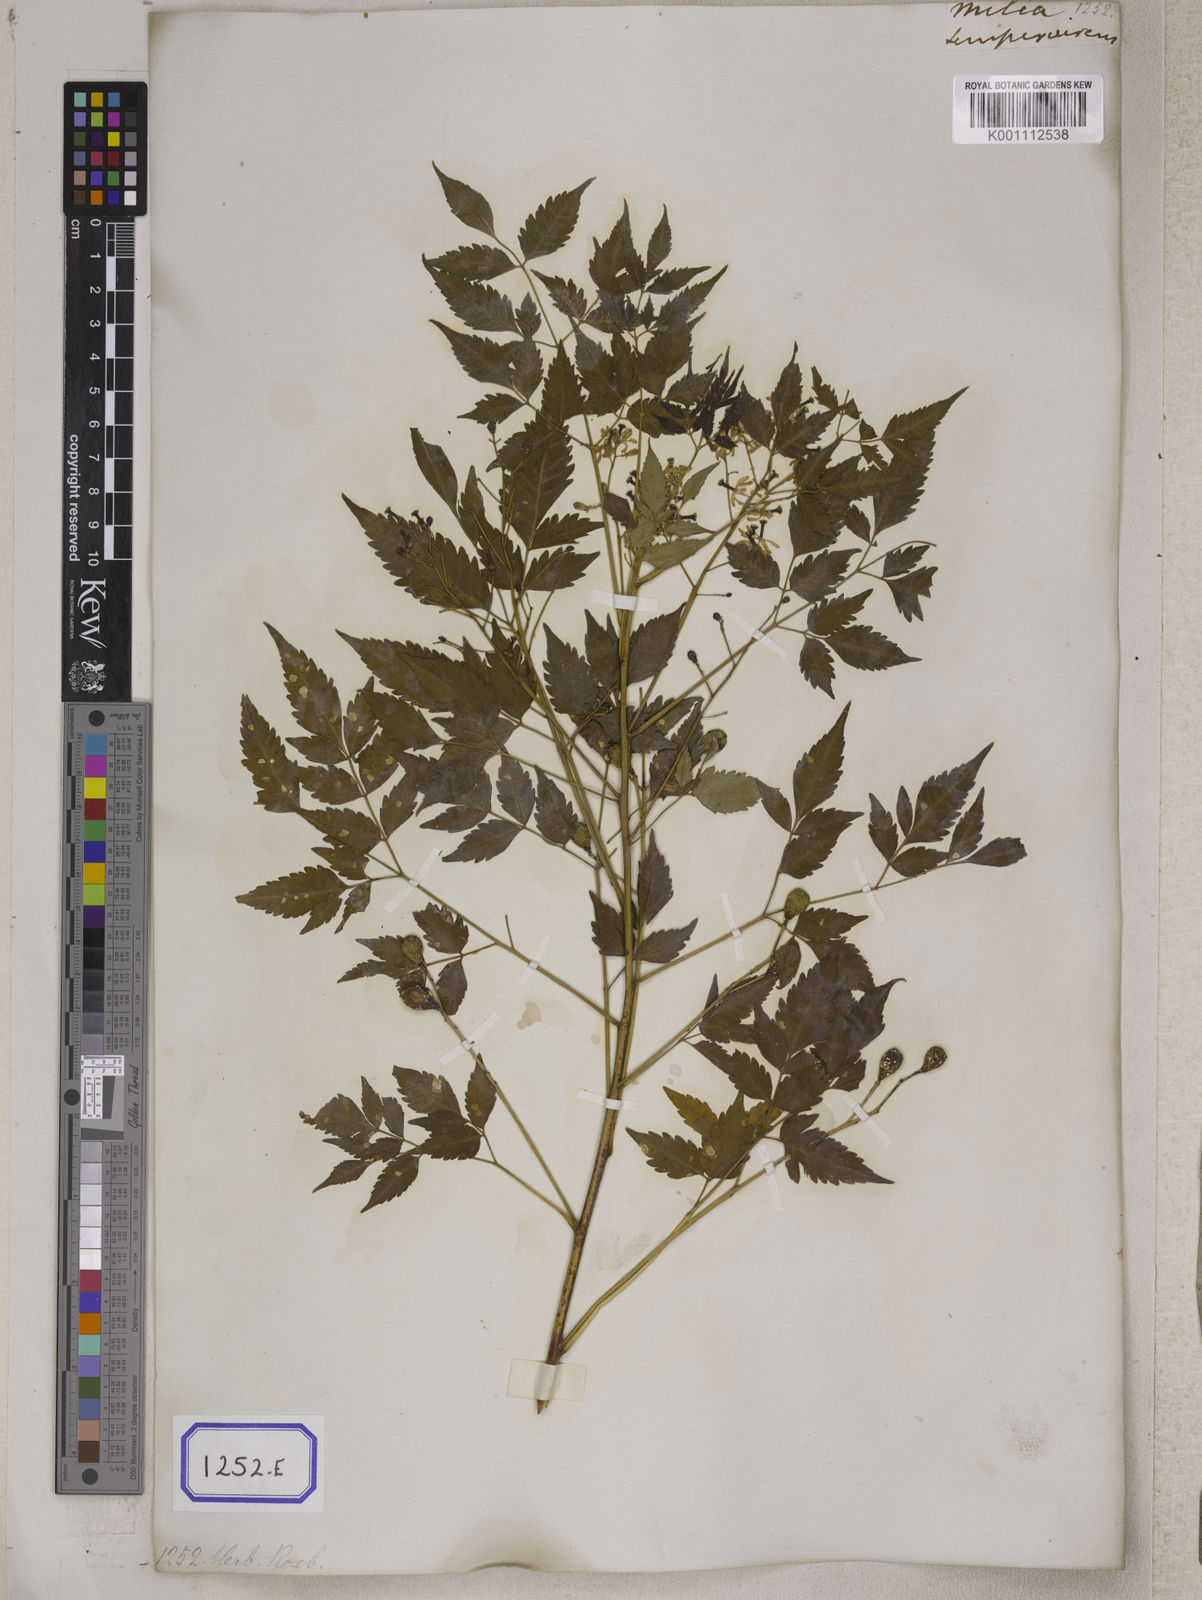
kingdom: Plantae
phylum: Tracheophyta
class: Magnoliopsida
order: Sapindales
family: Meliaceae
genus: Melia
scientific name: Melia azedarach
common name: Chinaberrytree
